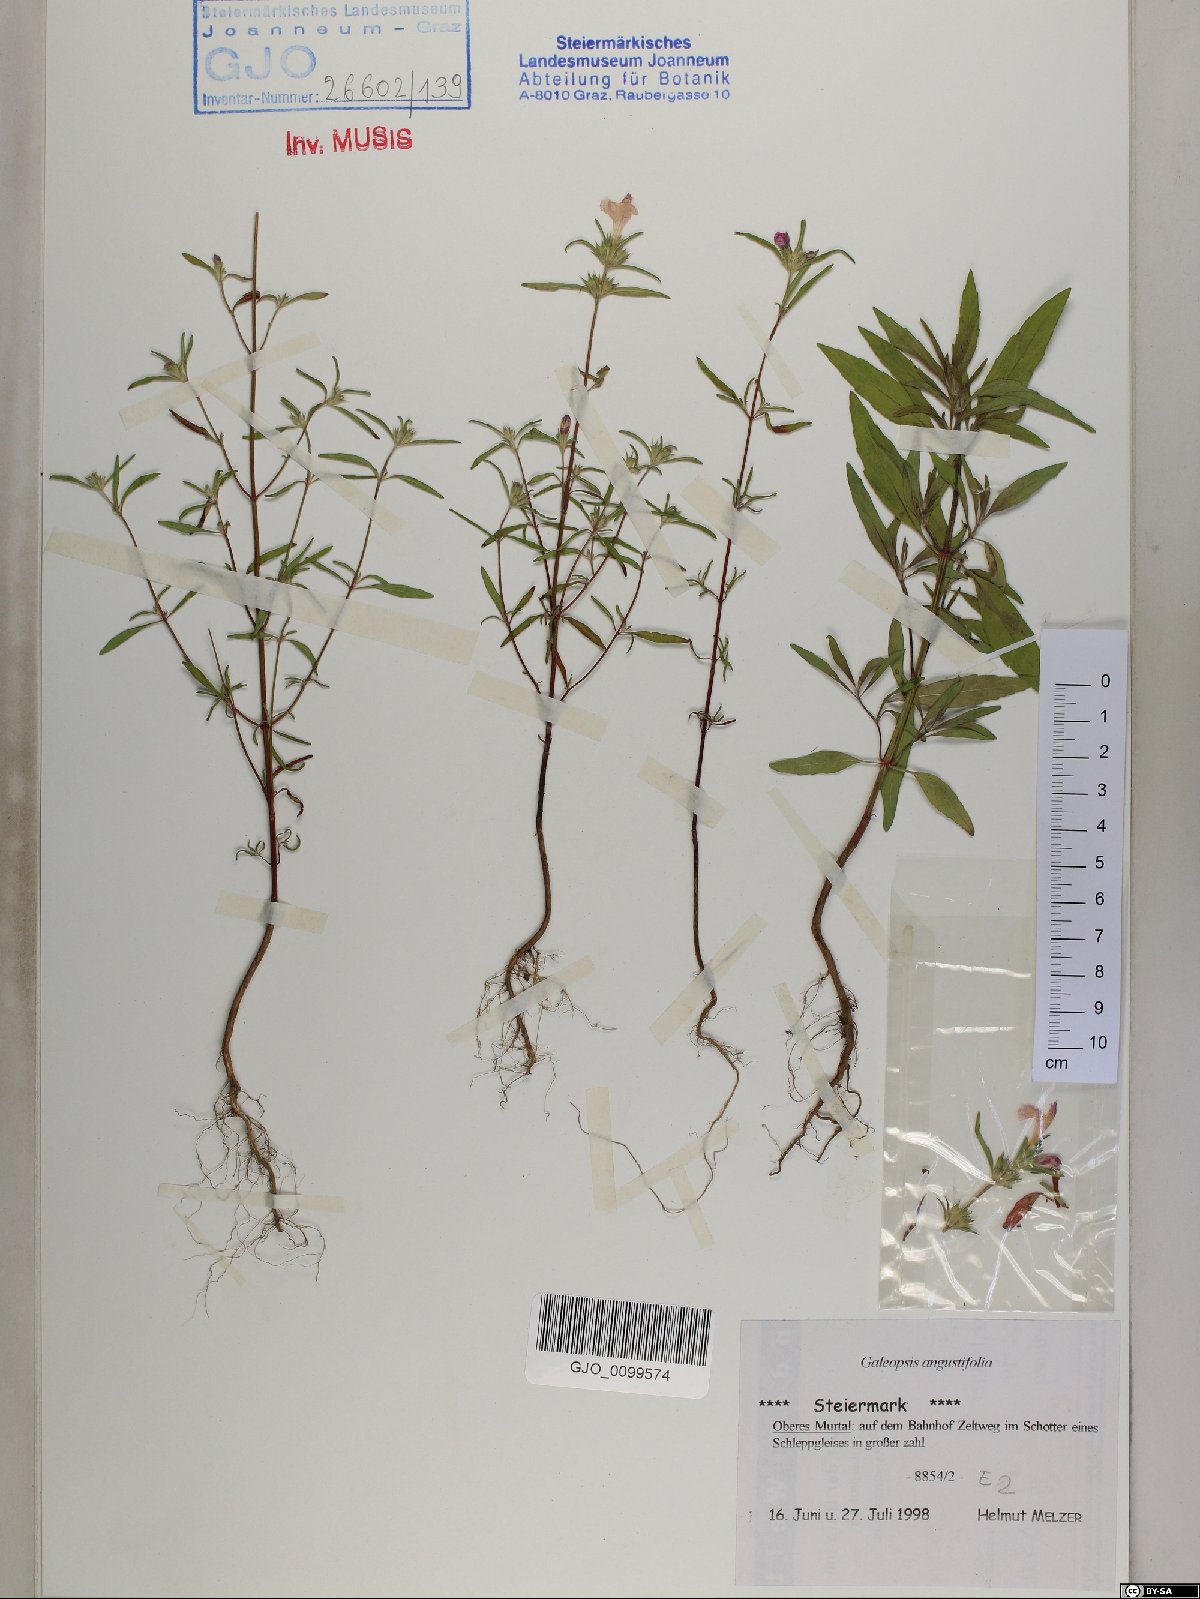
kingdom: Plantae
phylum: Tracheophyta
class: Magnoliopsida
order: Lamiales
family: Lamiaceae
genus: Galeopsis
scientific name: Galeopsis angustifolia
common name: Red hemp-nettle
